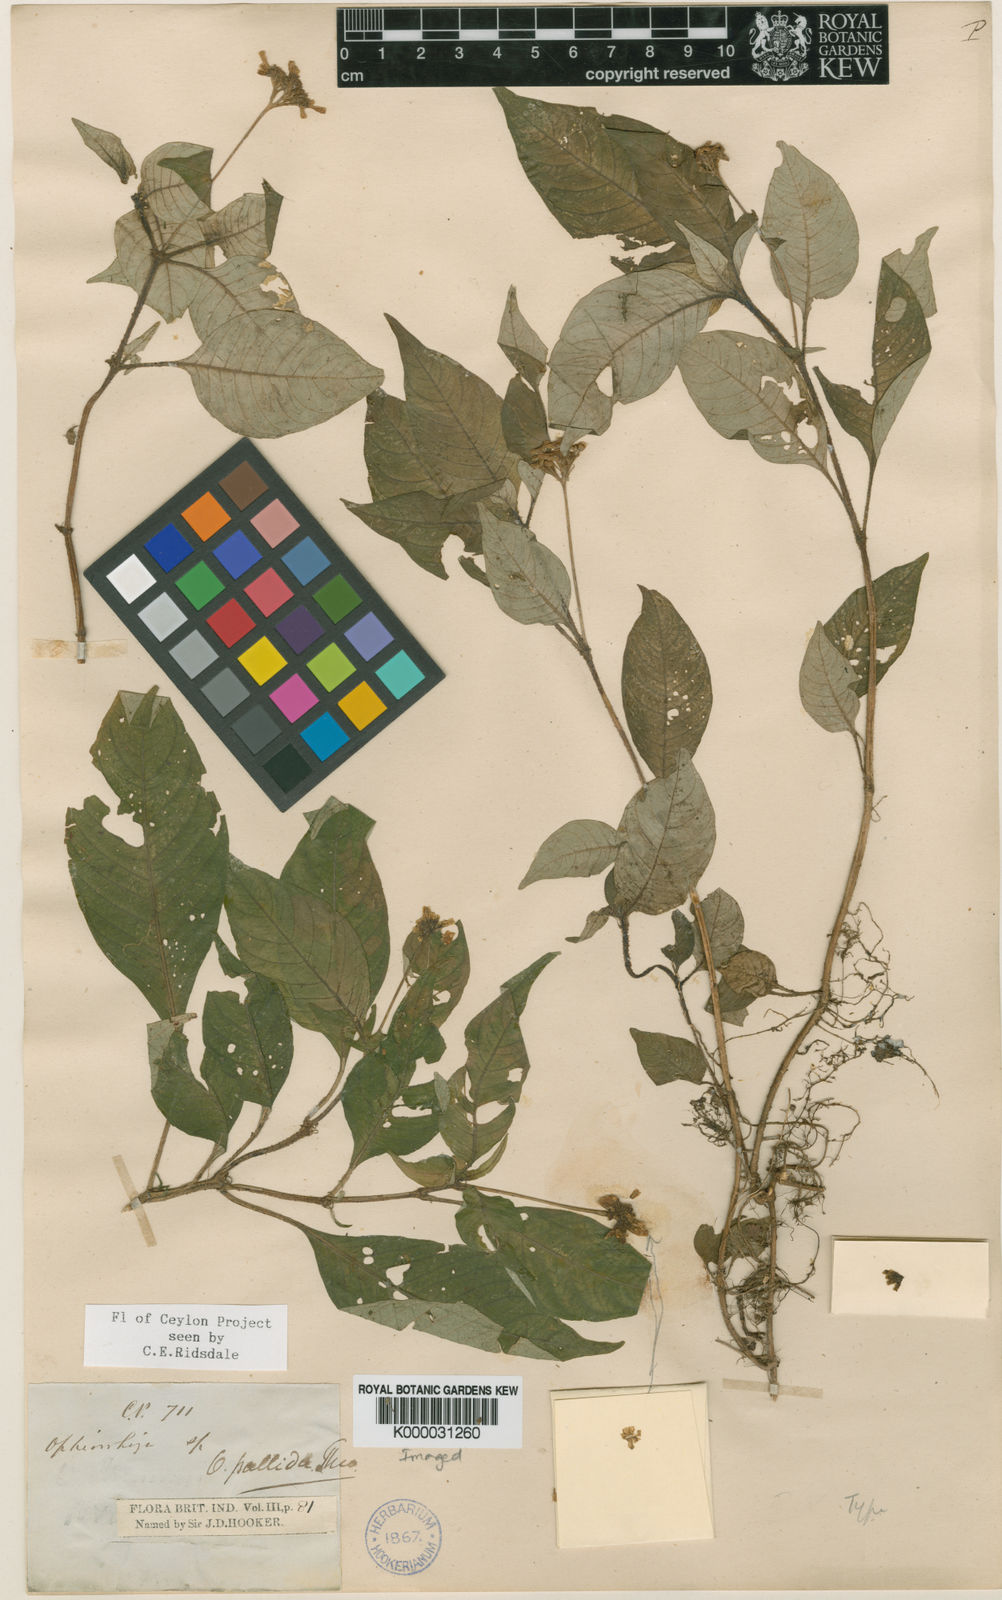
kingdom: Plantae
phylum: Tracheophyta
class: Magnoliopsida
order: Gentianales
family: Rubiaceae
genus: Ophiorrhiza
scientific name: Ophiorrhiza pallida
